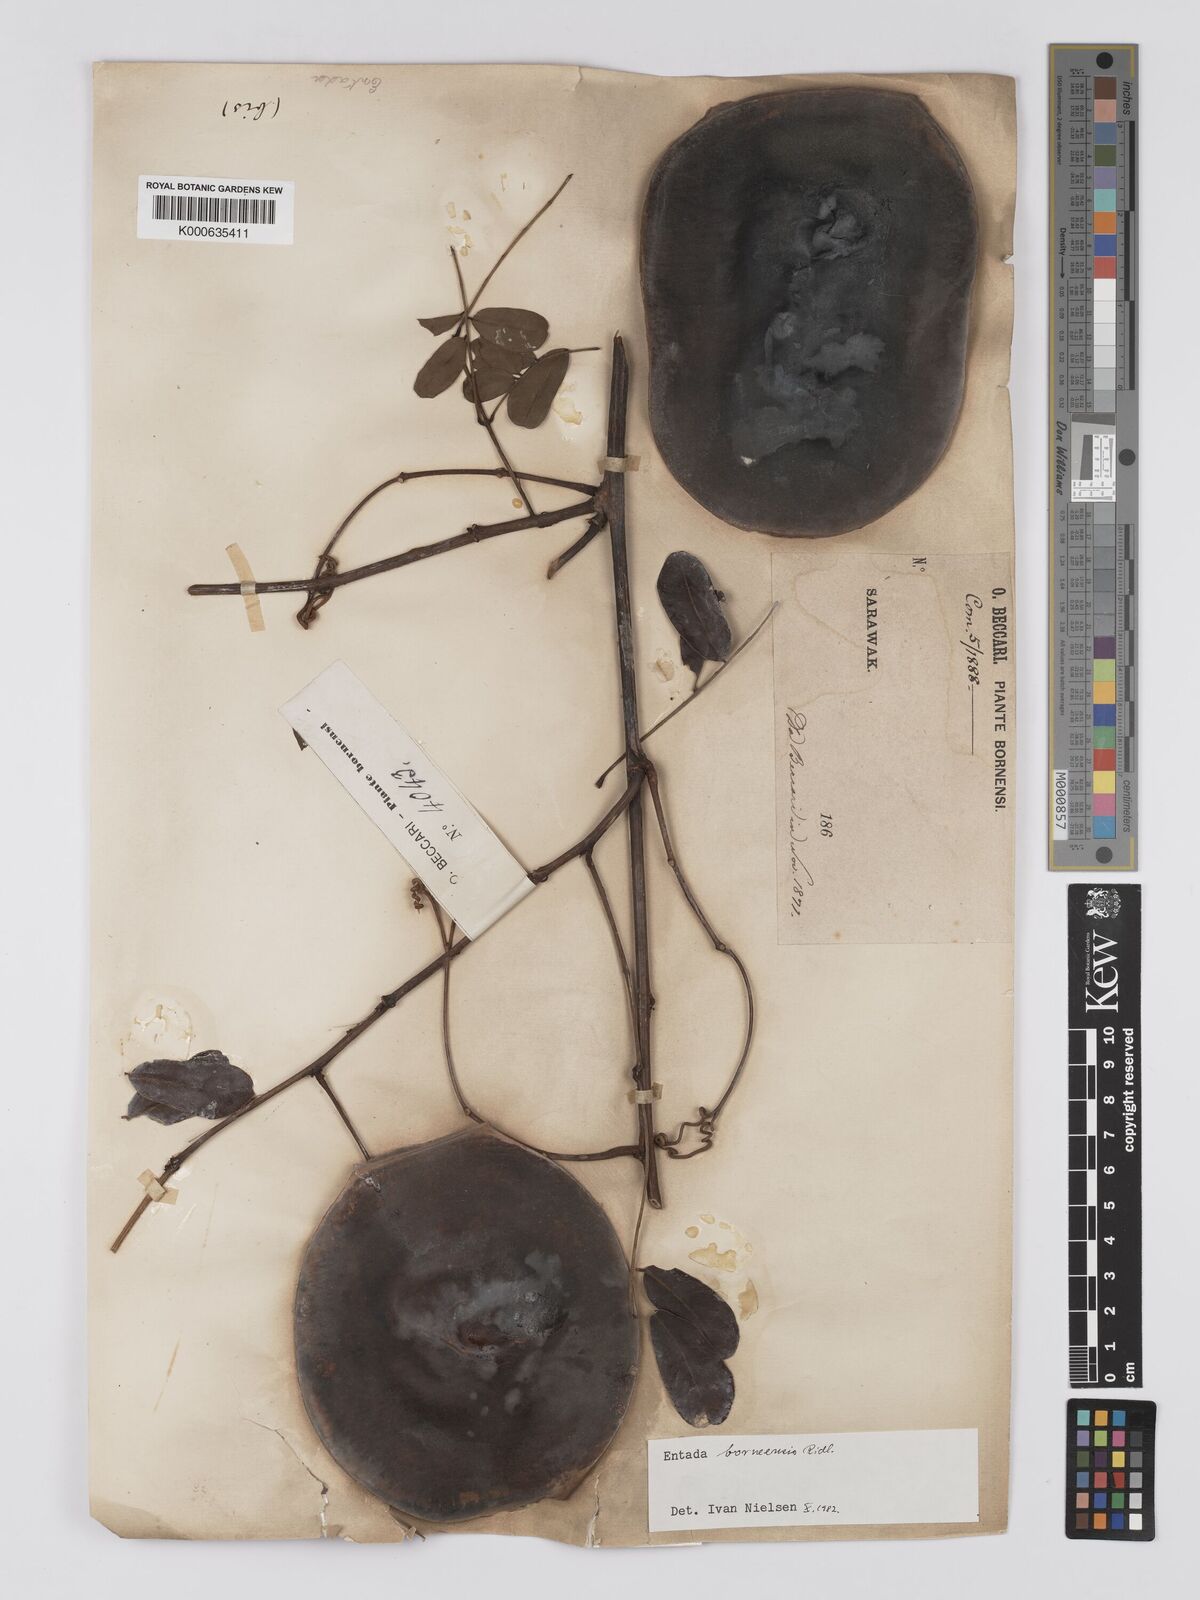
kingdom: Plantae
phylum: Tracheophyta
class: Magnoliopsida
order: Fabales
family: Fabaceae
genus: Entada
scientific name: Entada borneensis
